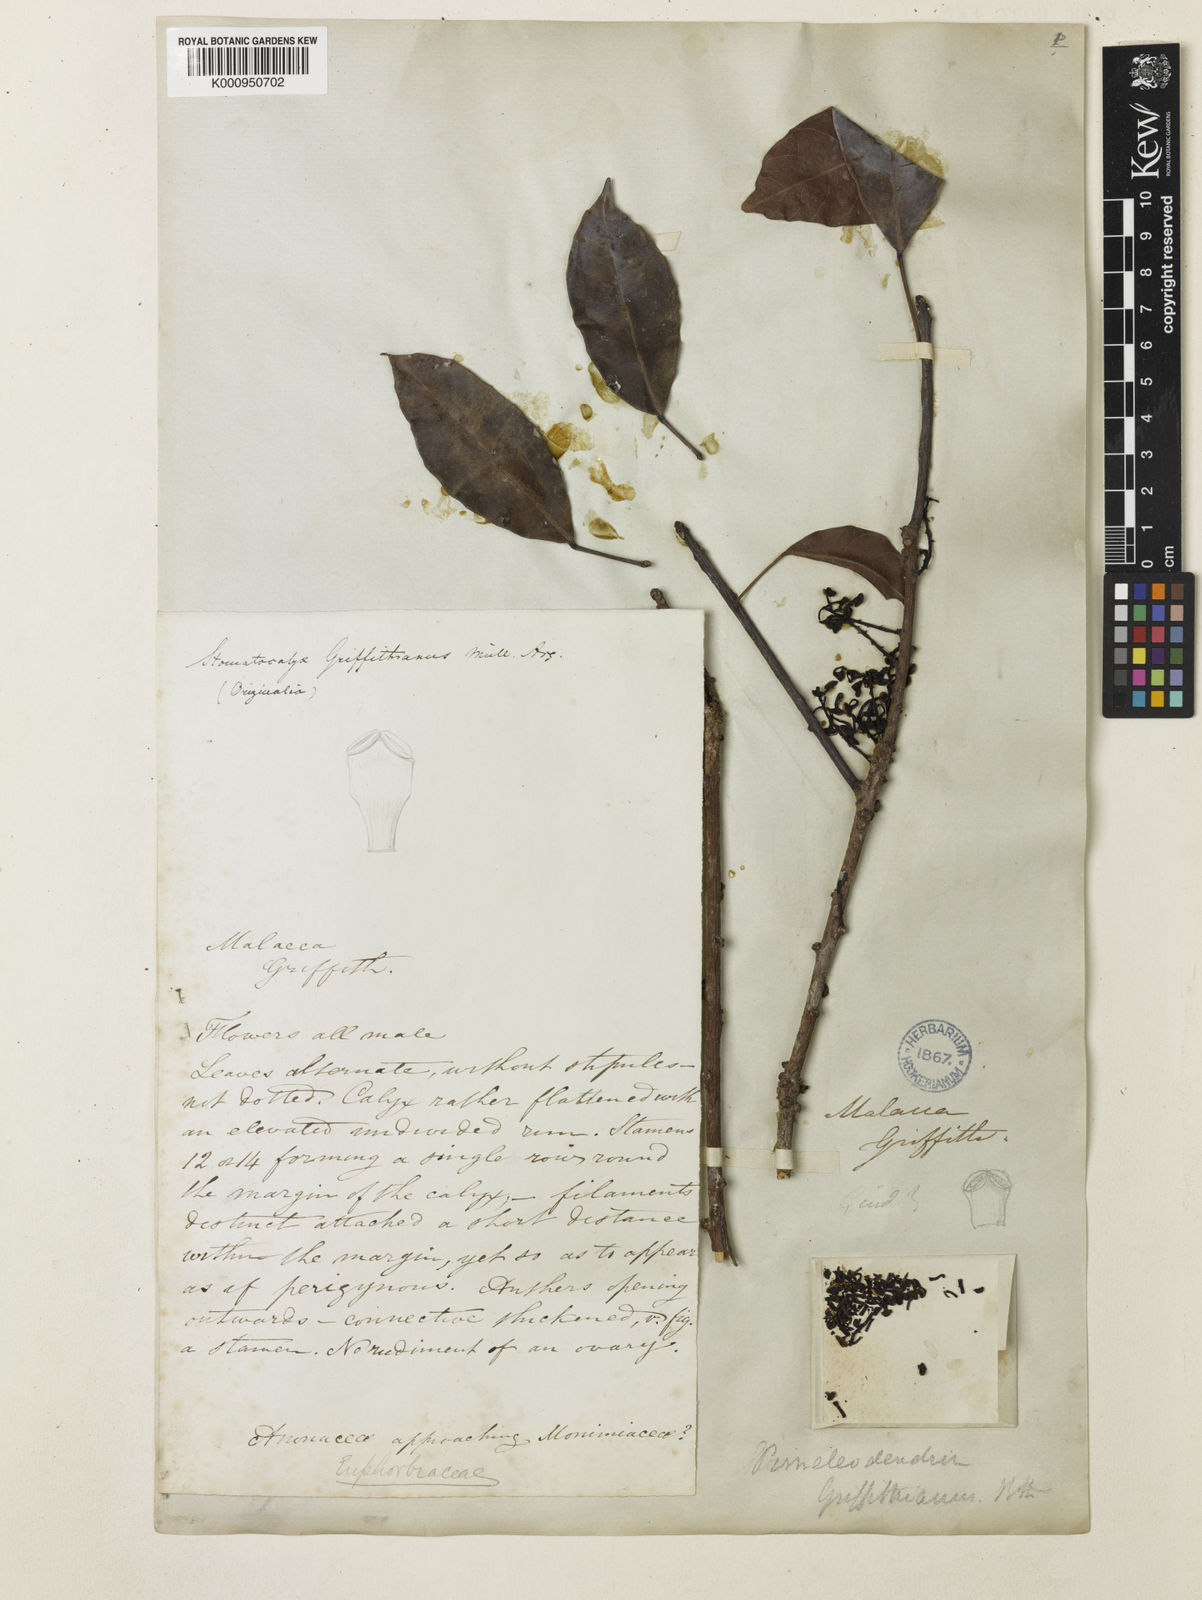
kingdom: Plantae
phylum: Tracheophyta
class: Magnoliopsida
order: Malpighiales
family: Euphorbiaceae
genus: Pimelodendron
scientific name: Pimelodendron
